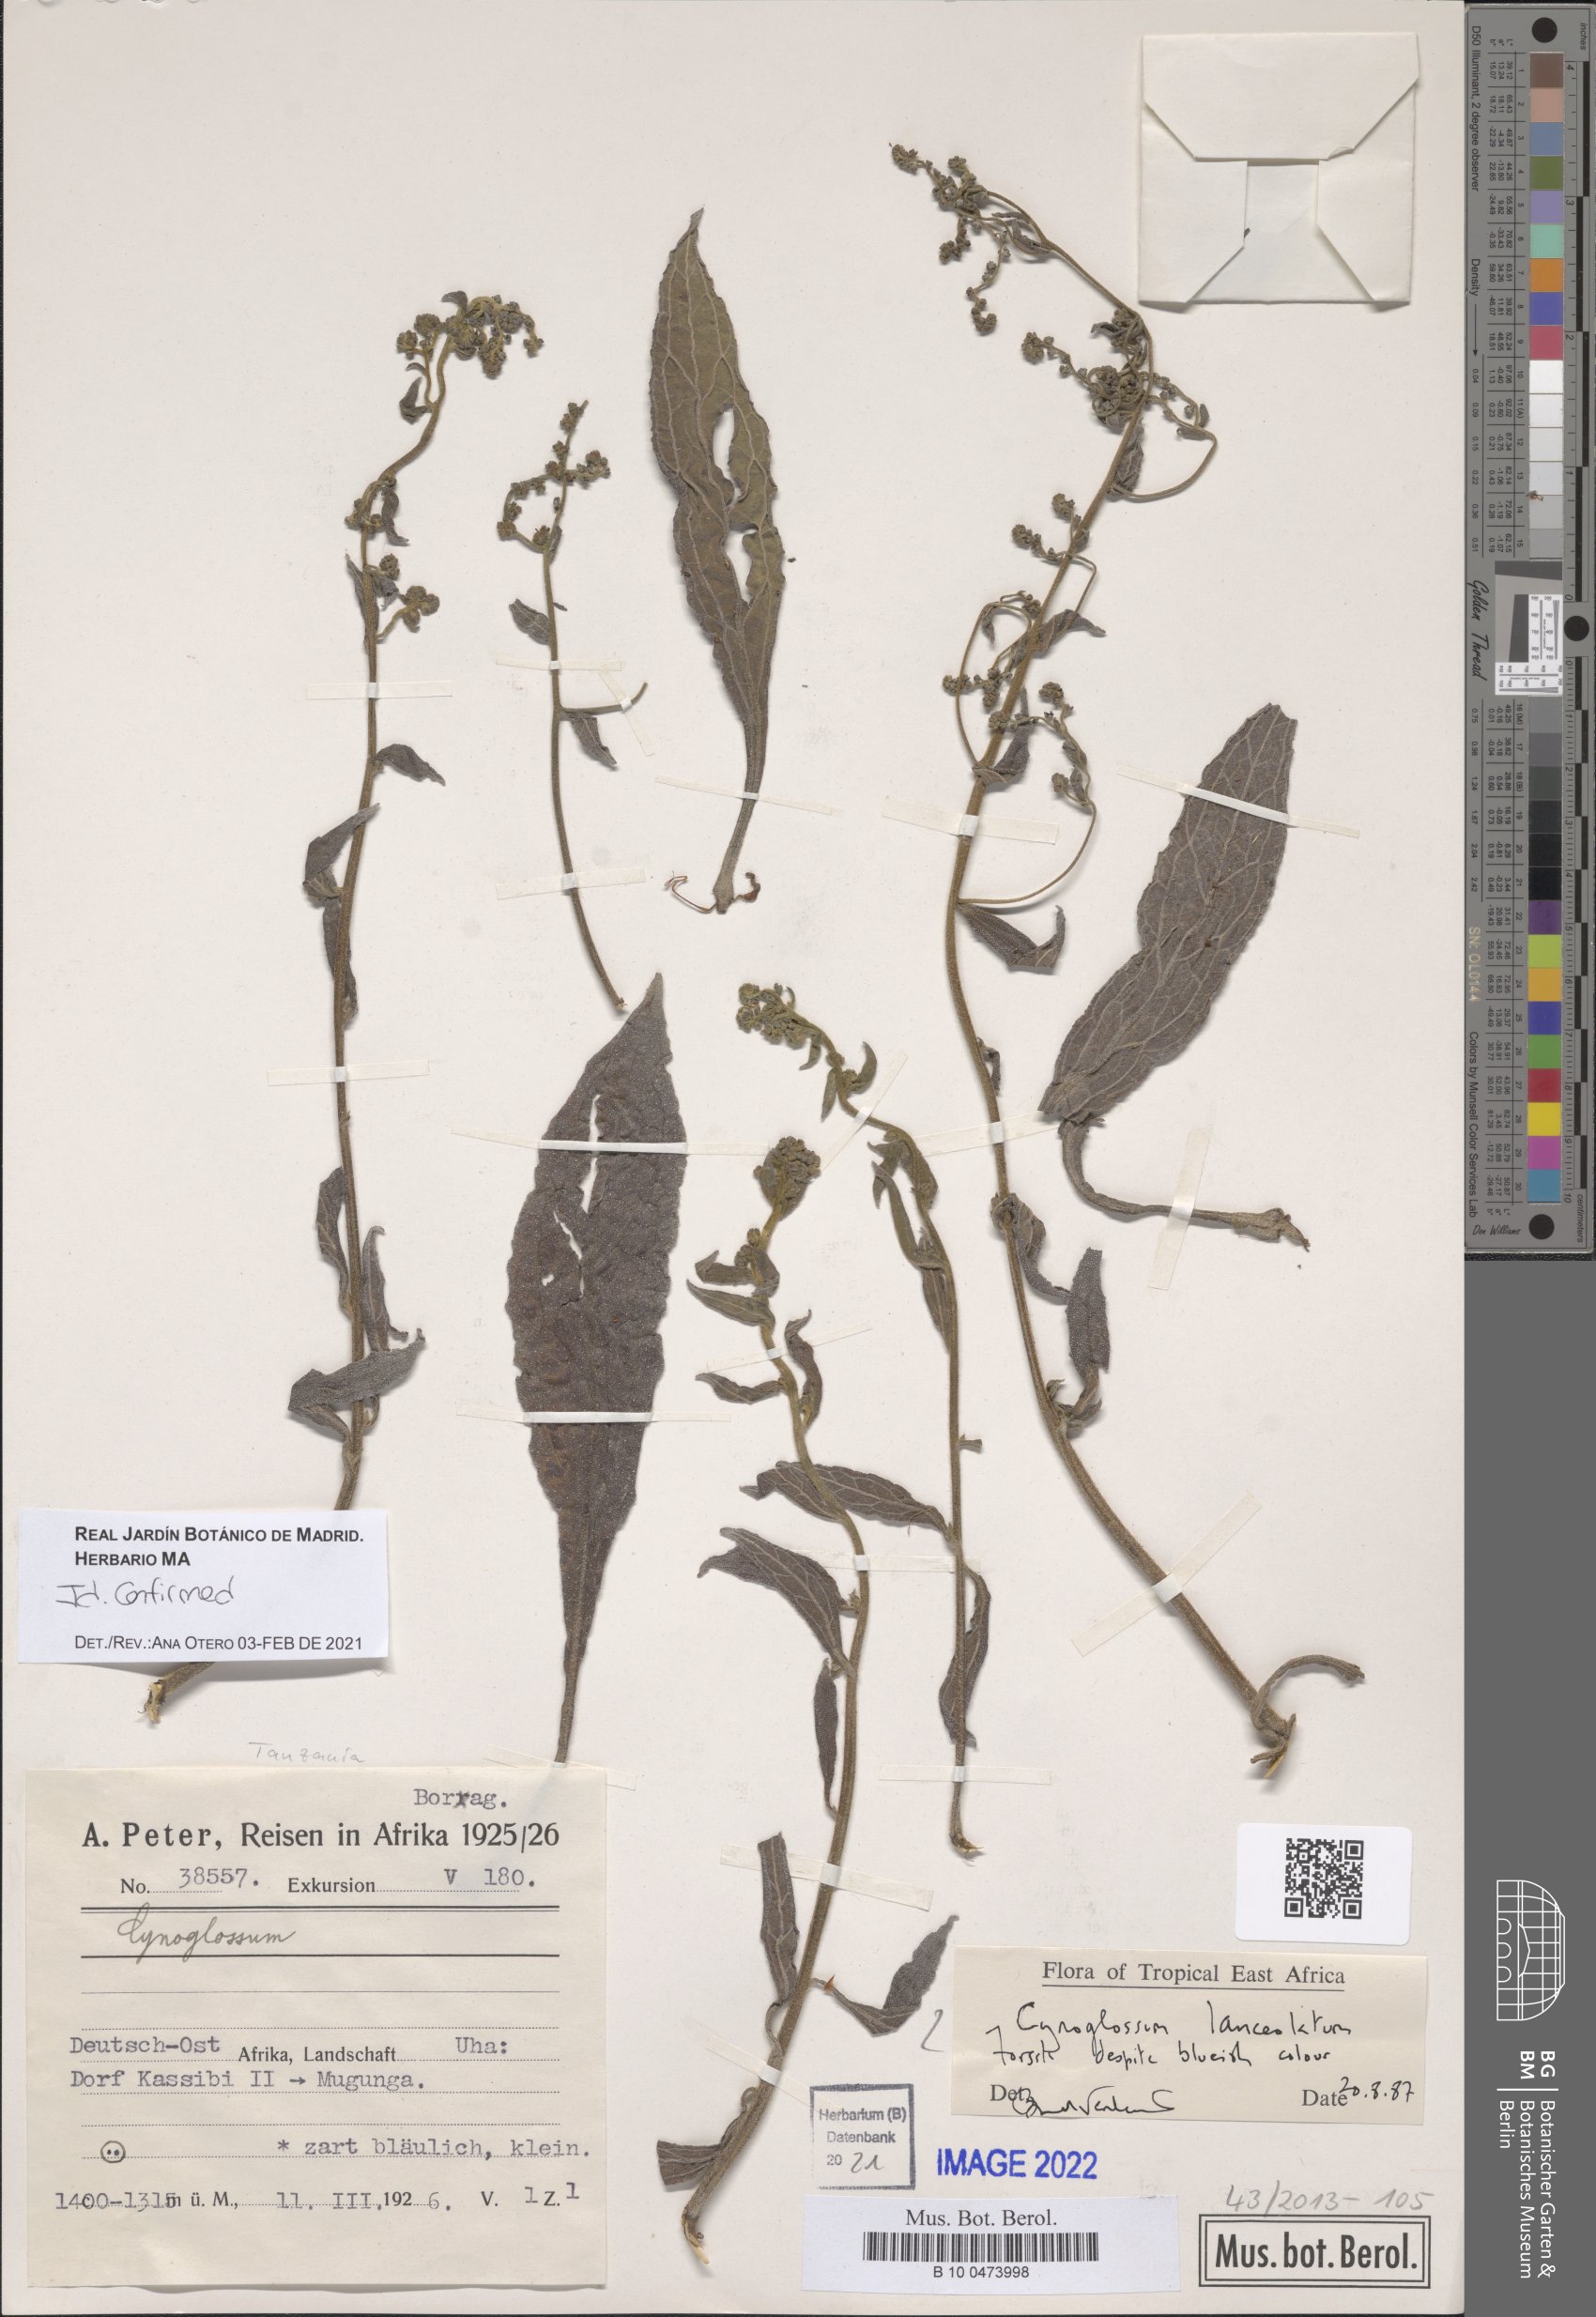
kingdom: Plantae
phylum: Tracheophyta
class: Magnoliopsida
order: Boraginales
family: Boraginaceae
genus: Paracynoglossum
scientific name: Paracynoglossum lanceolatum
